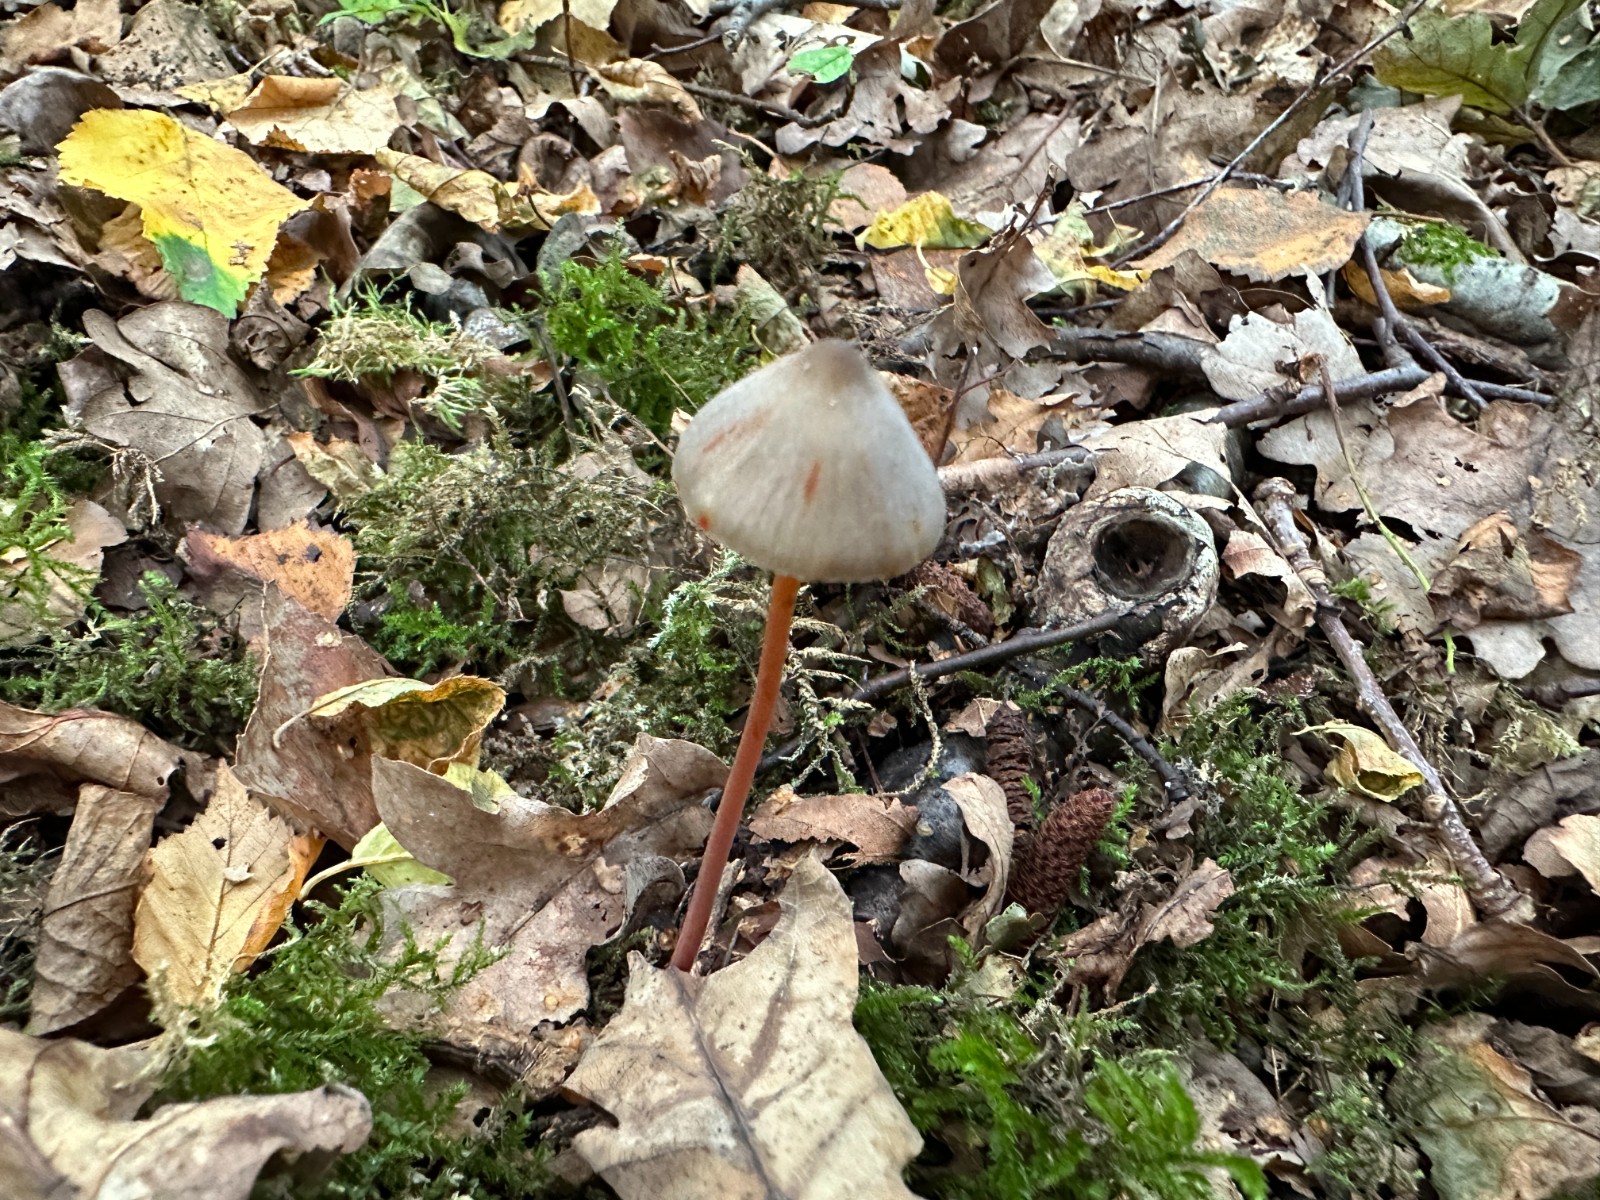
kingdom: Fungi
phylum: Basidiomycota
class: Agaricomycetes
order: Agaricales
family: Mycenaceae
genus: Mycena
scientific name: Mycena crocata
